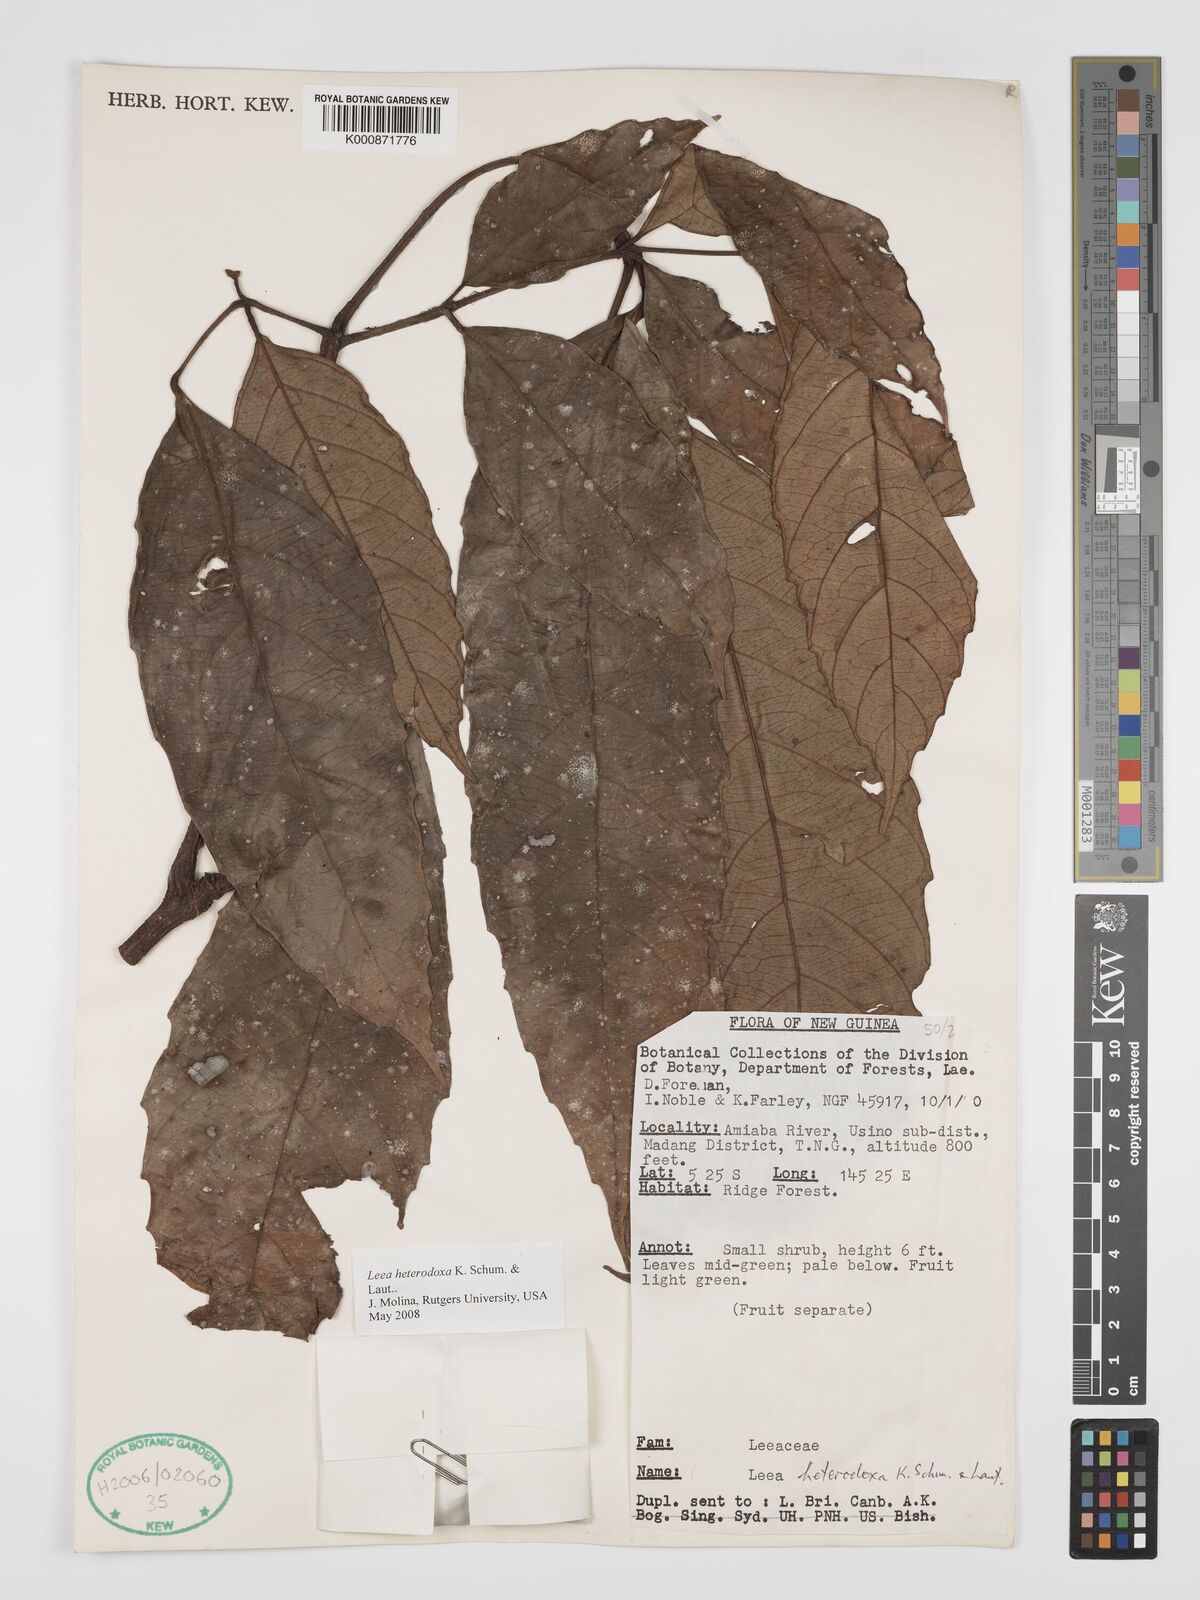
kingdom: Plantae
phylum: Tracheophyta
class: Magnoliopsida
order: Vitales
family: Vitaceae
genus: Leea
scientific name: Leea heterodoxa
